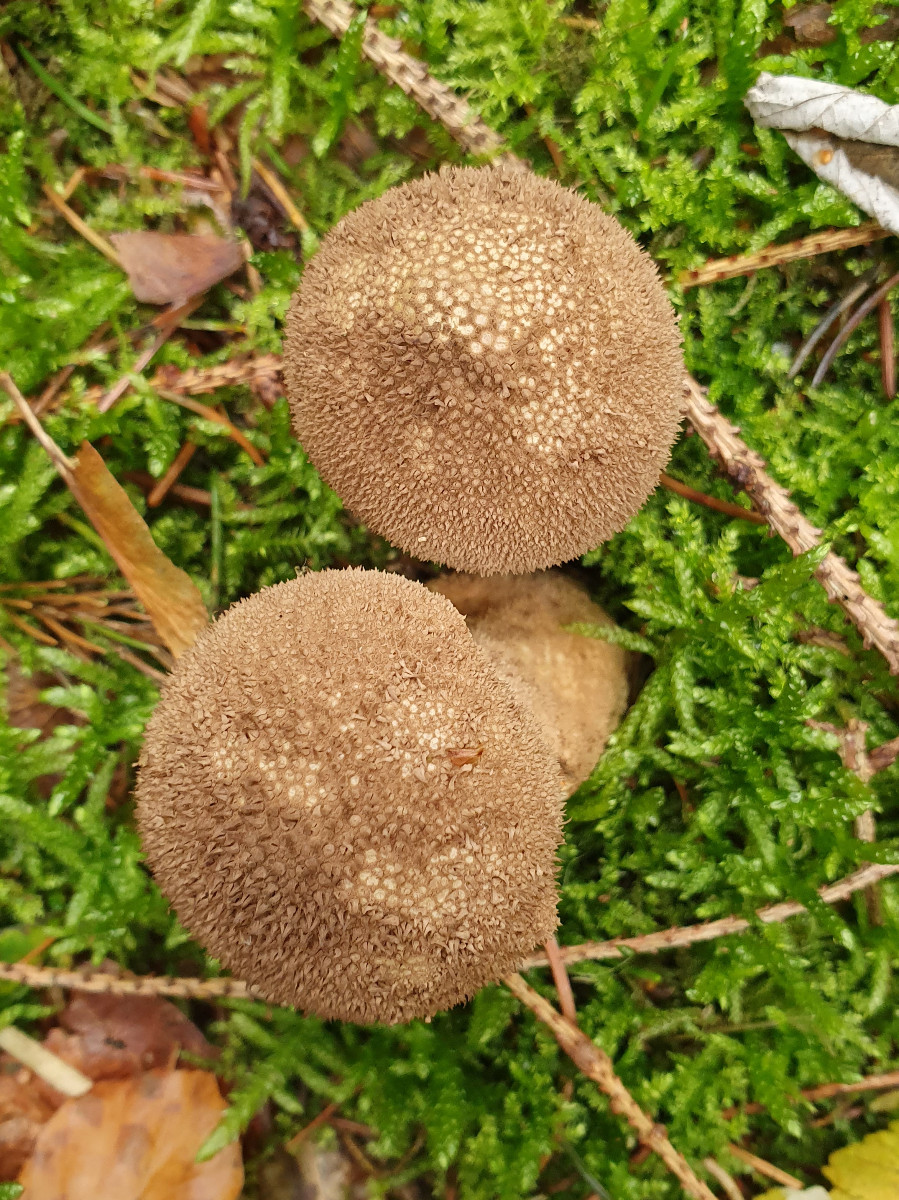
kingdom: Fungi
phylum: Basidiomycota
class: Agaricomycetes
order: Agaricales
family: Lycoperdaceae
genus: Lycoperdon
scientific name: Lycoperdon nigrescens
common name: sortagtig støvbold
